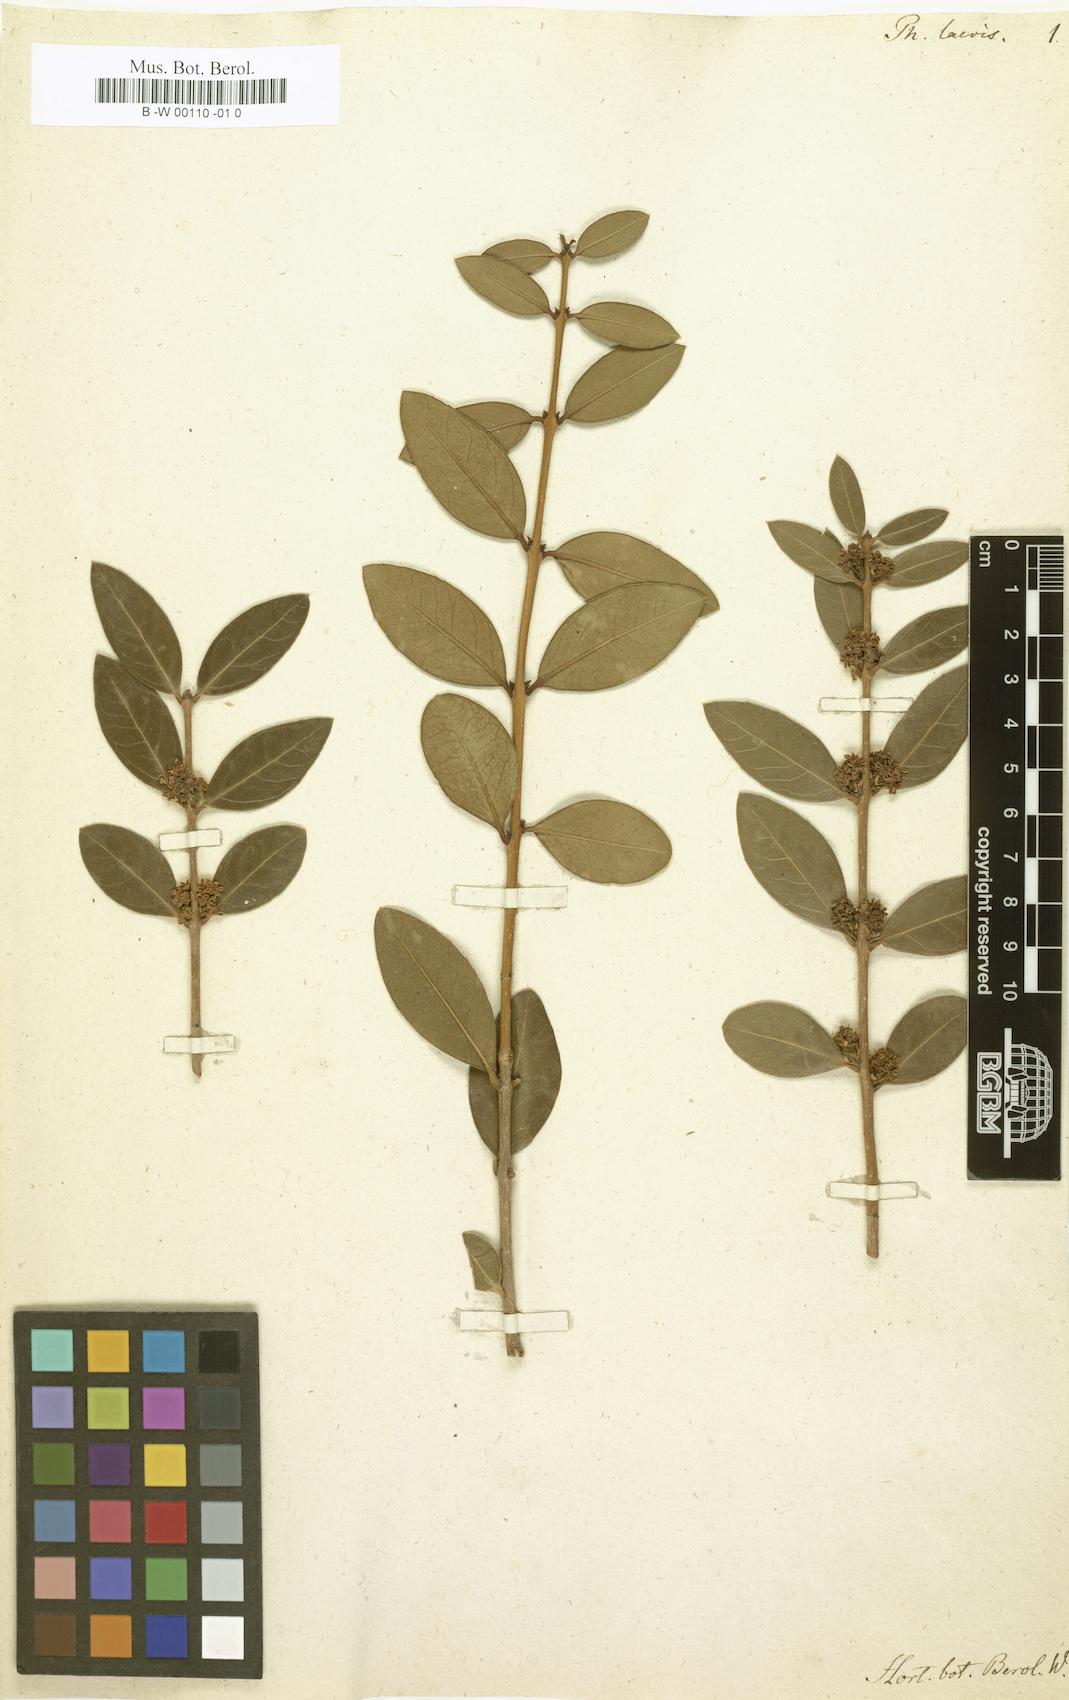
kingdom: Plantae
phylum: Tracheophyta
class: Magnoliopsida
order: Lamiales
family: Oleaceae
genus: Phillyrea
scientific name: Phillyrea latifolia
